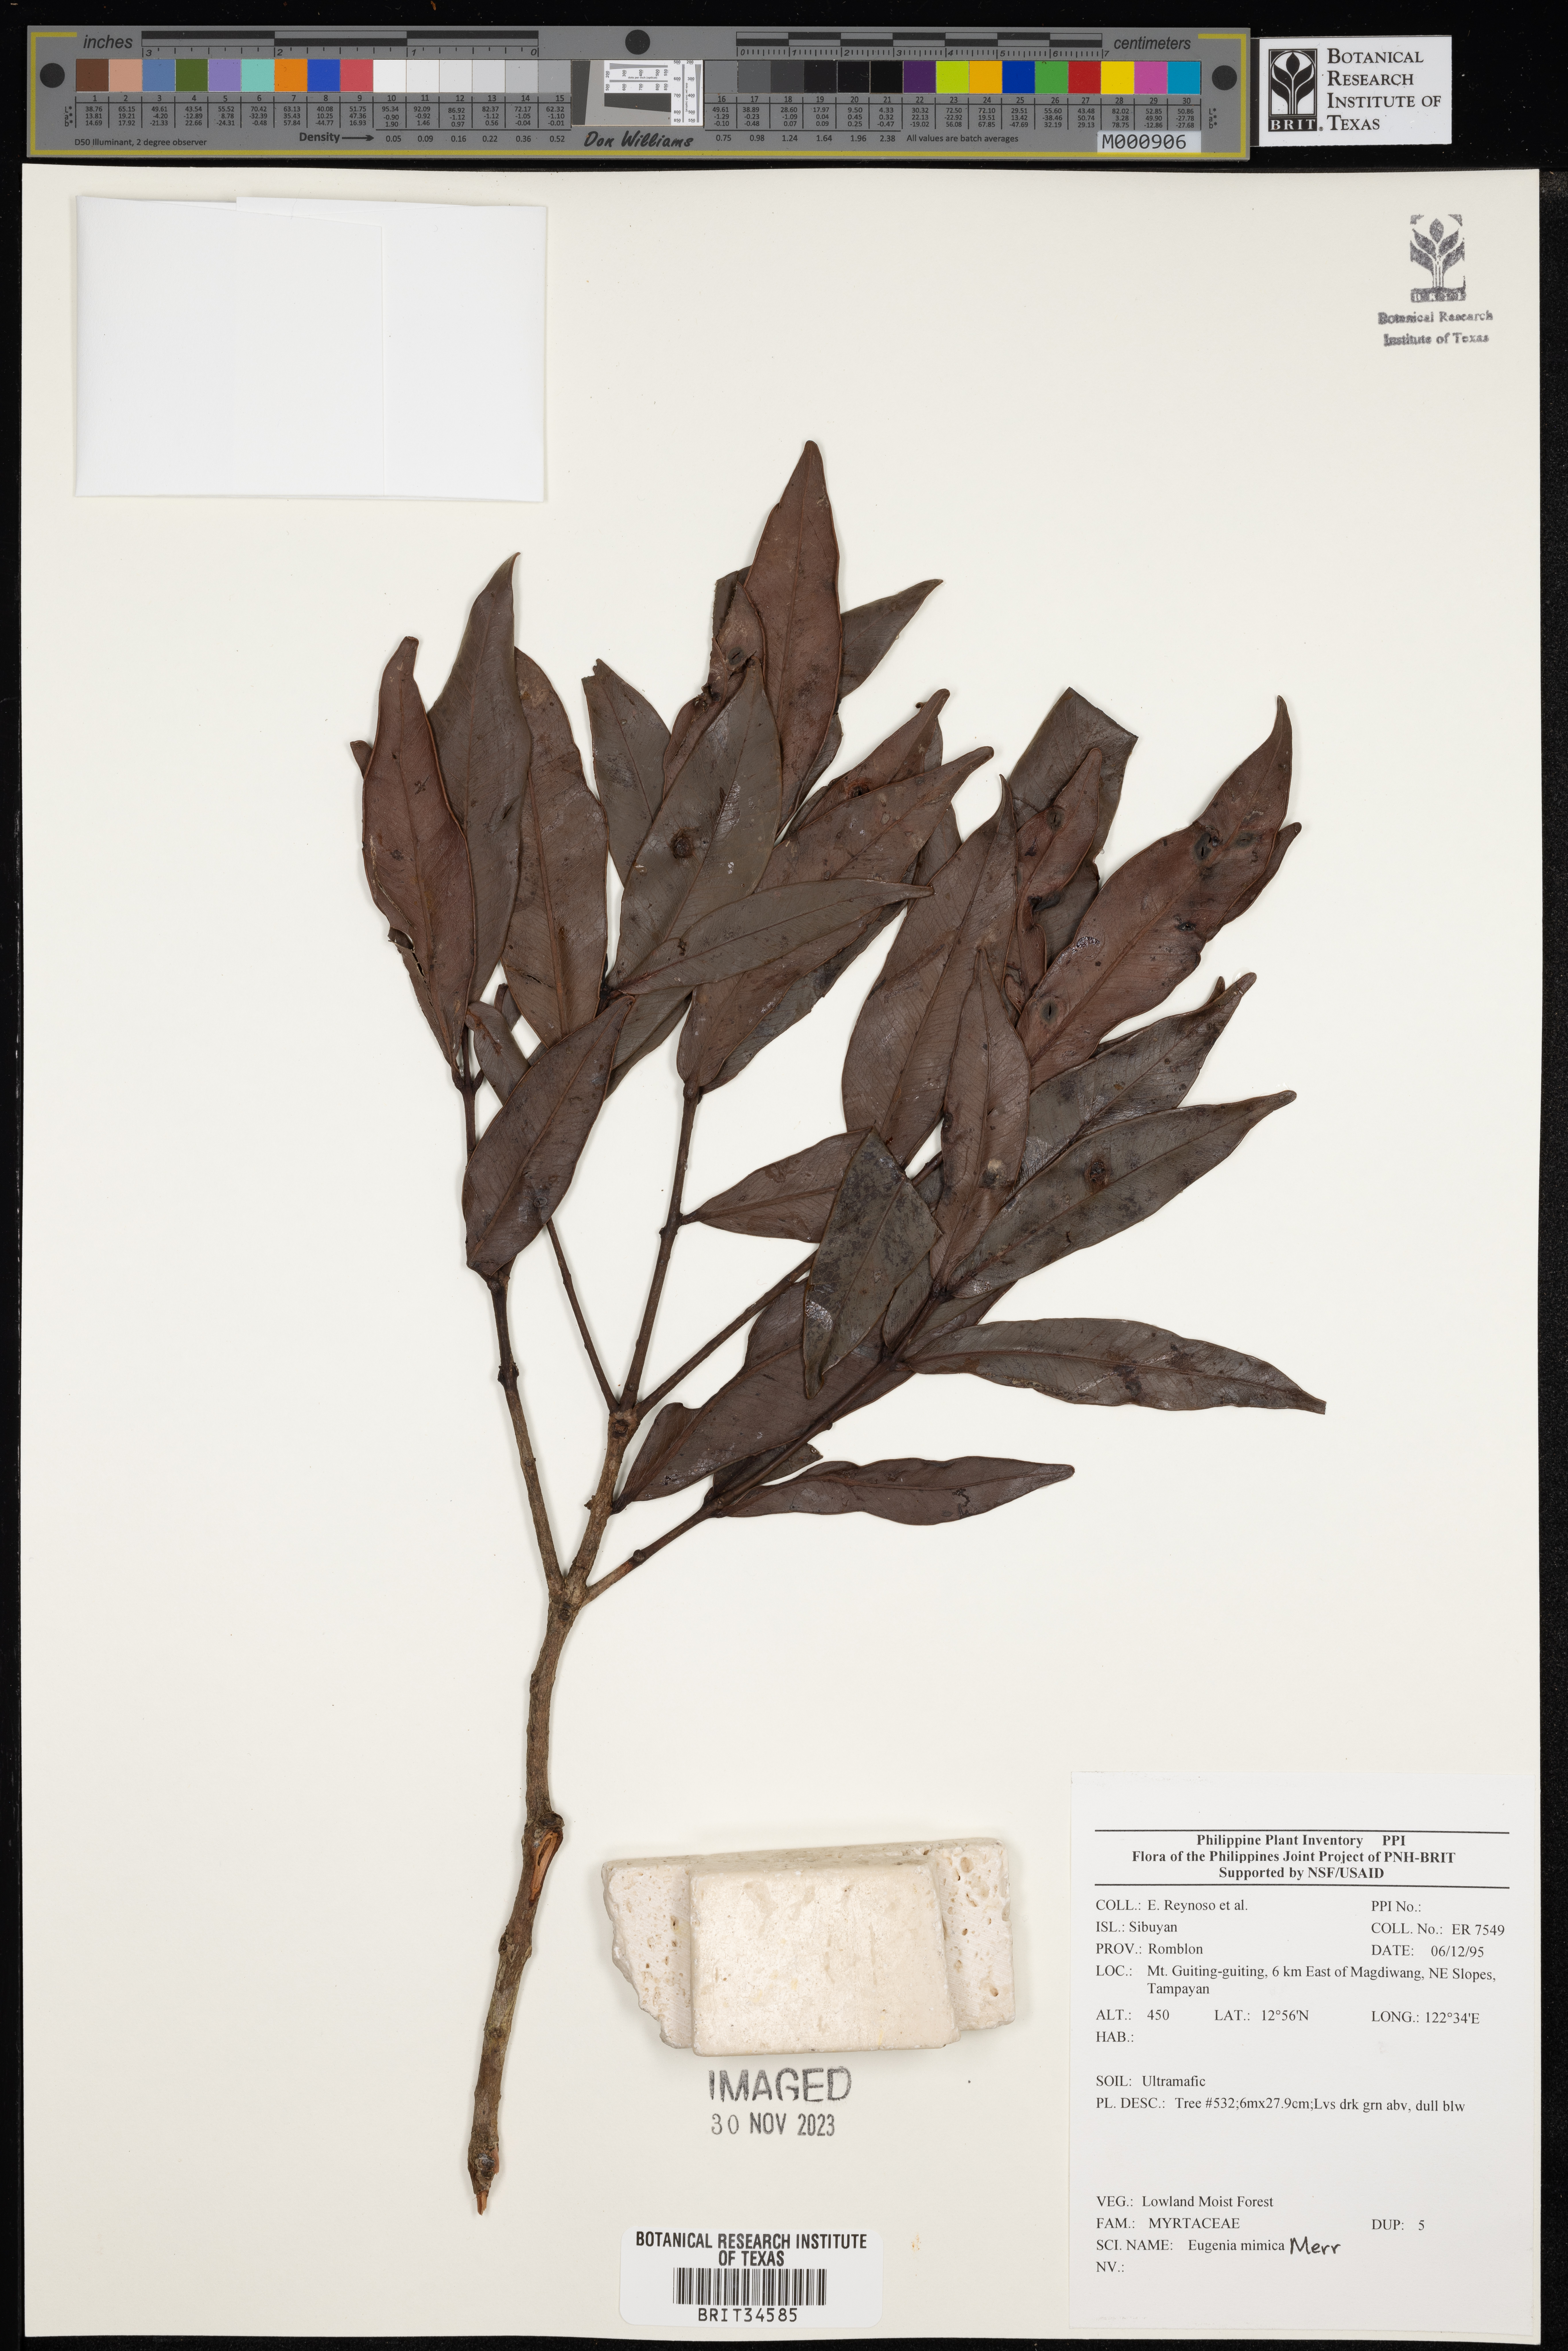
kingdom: Plantae
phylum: Tracheophyta
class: Magnoliopsida
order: Myrtales
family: Myrtaceae
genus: Eugenia
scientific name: Eugenia
